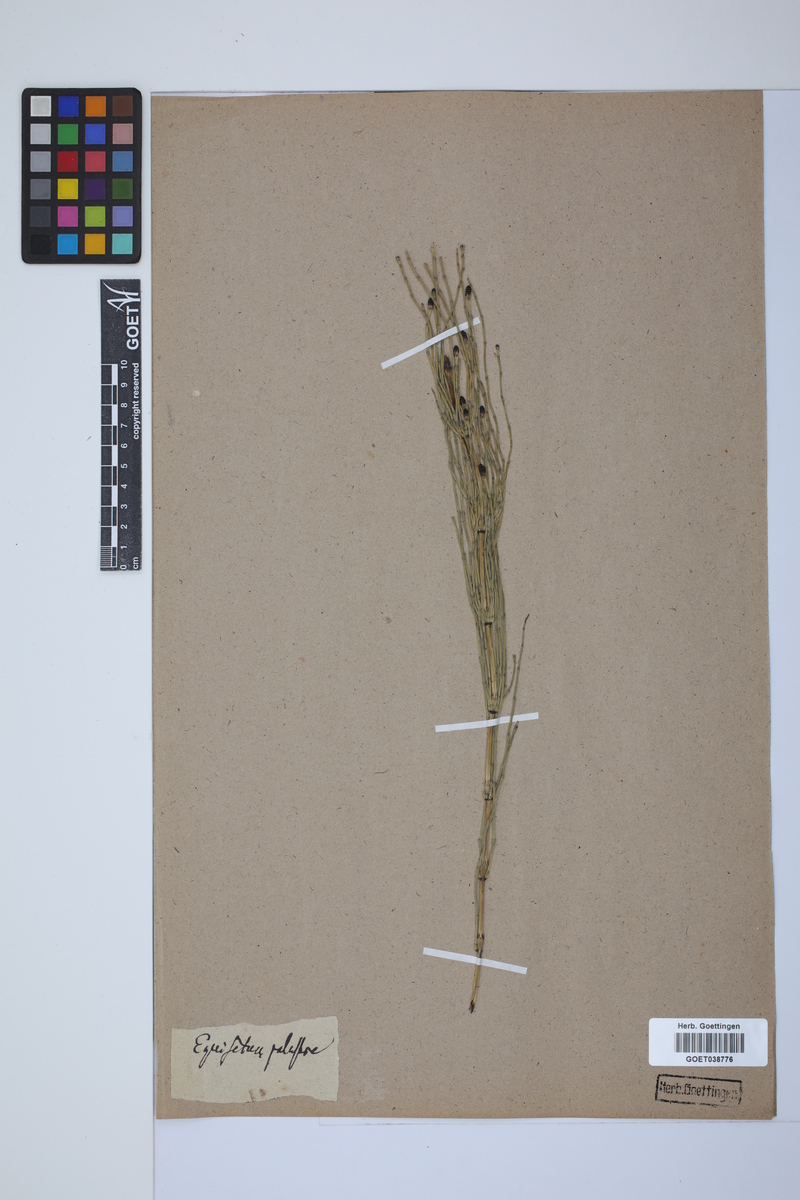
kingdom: Plantae
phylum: Tracheophyta
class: Polypodiopsida
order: Equisetales
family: Equisetaceae
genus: Equisetum
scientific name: Equisetum palustre
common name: Marsh horsetail
